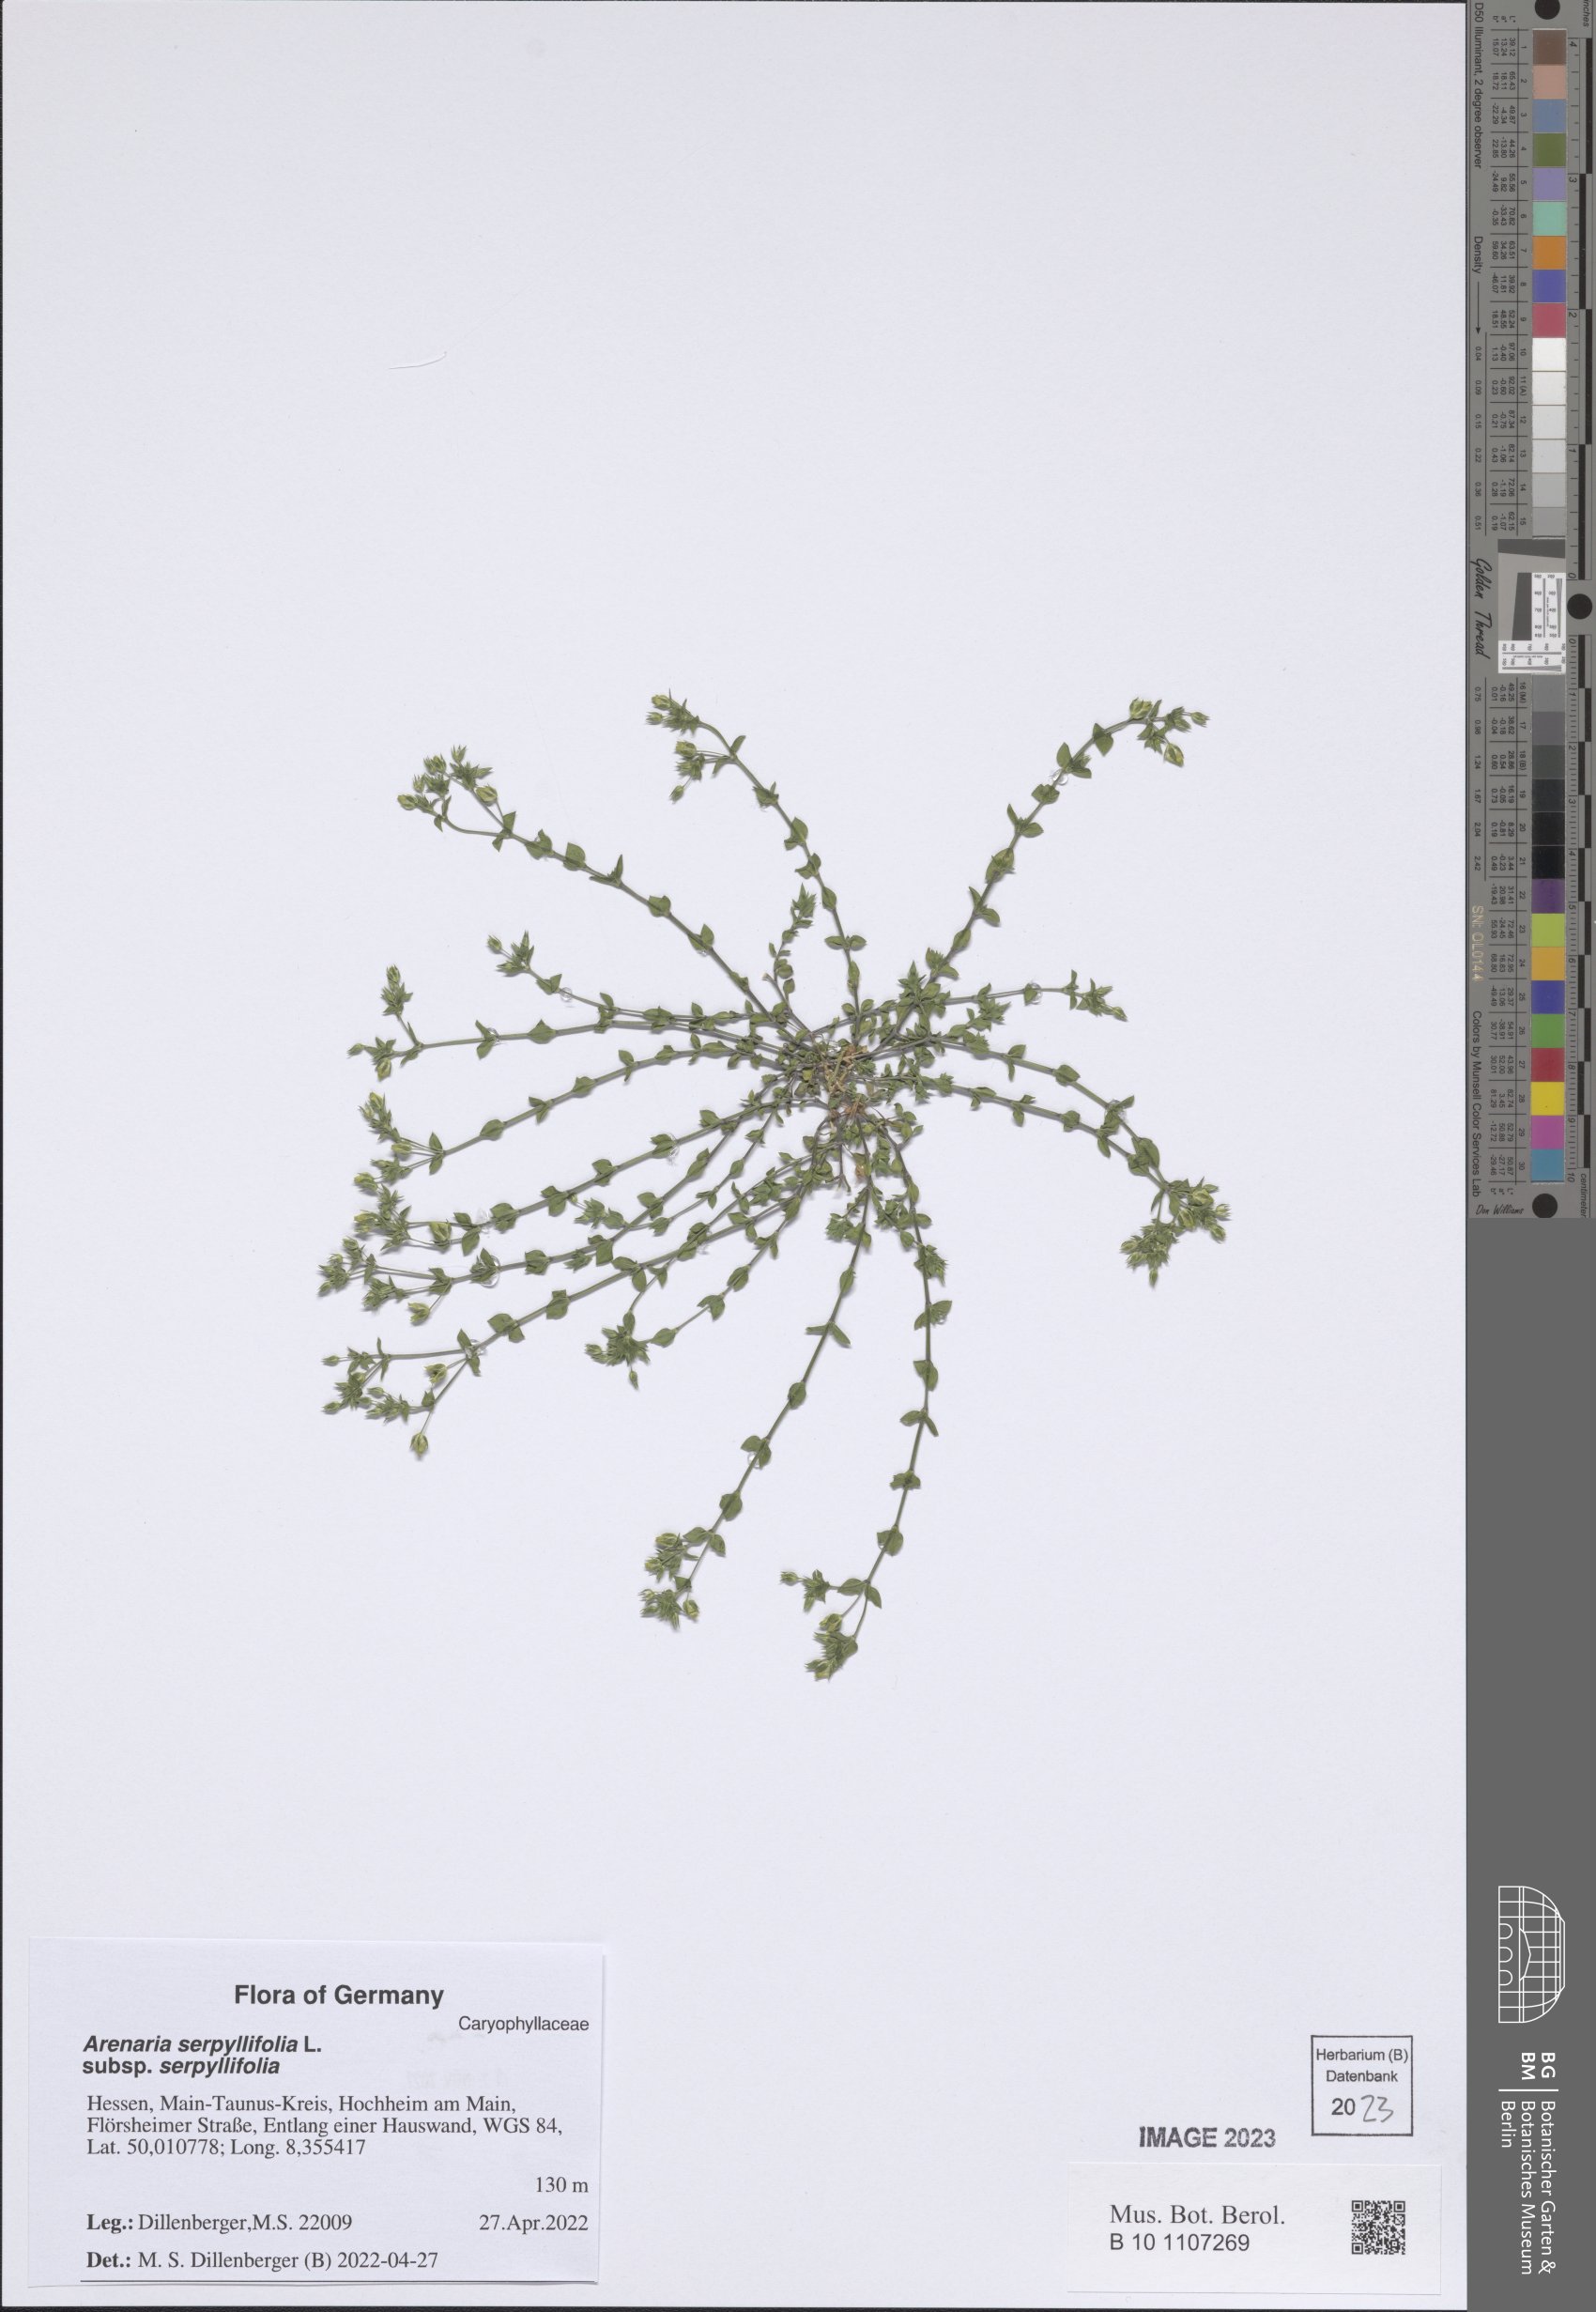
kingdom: Plantae
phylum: Tracheophyta
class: Magnoliopsida
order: Caryophyllales
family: Caryophyllaceae
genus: Arenaria
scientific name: Arenaria serpyllifolia
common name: Thyme-leaved sandwort
